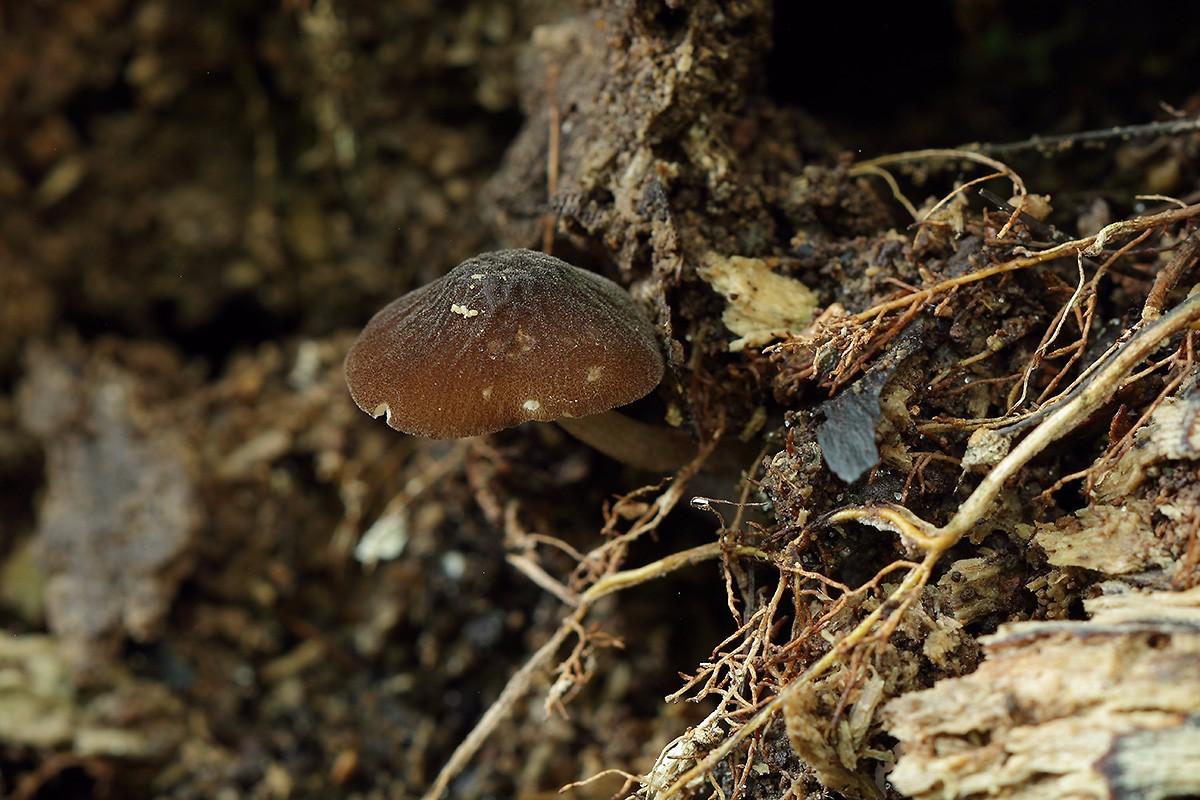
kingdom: Fungi
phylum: Basidiomycota
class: Agaricomycetes
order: Agaricales
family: Pluteaceae
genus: Pluteus
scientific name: Pluteus umbrosus
